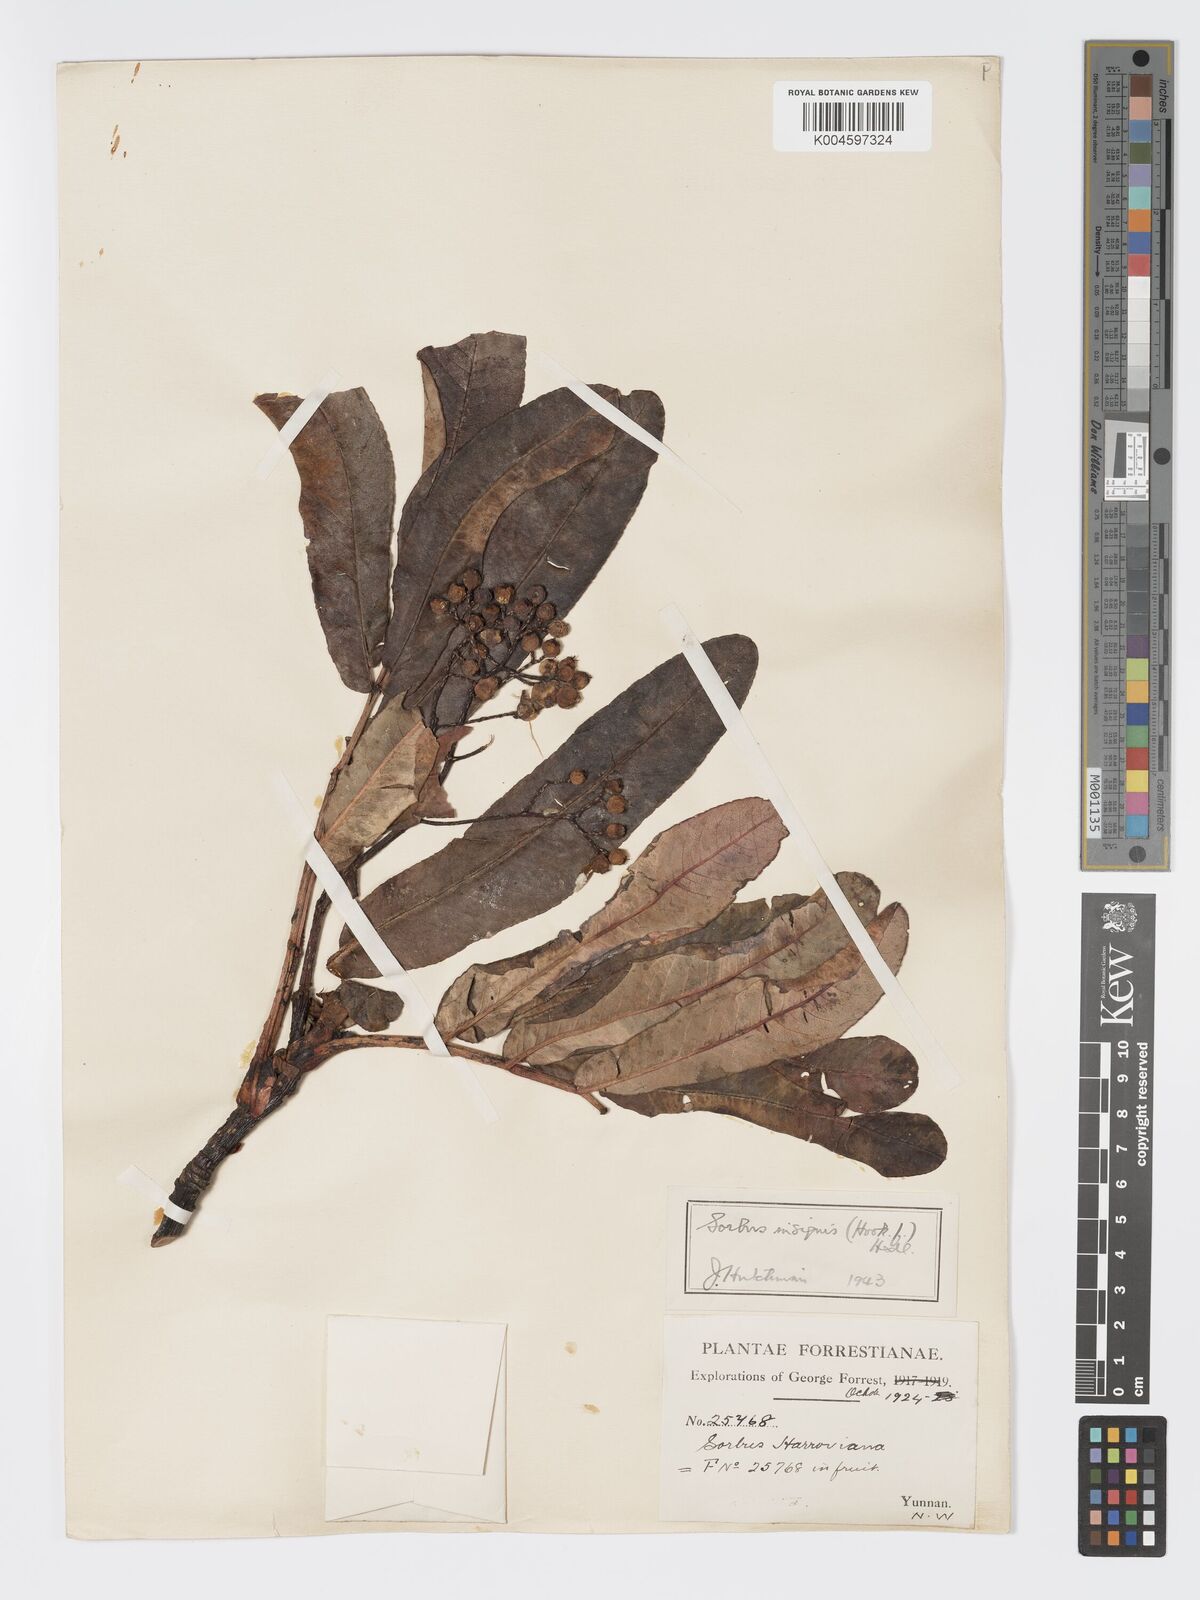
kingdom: Plantae
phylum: Tracheophyta
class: Magnoliopsida
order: Rosales
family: Rosaceae
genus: Sorbus
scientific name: Sorbus
